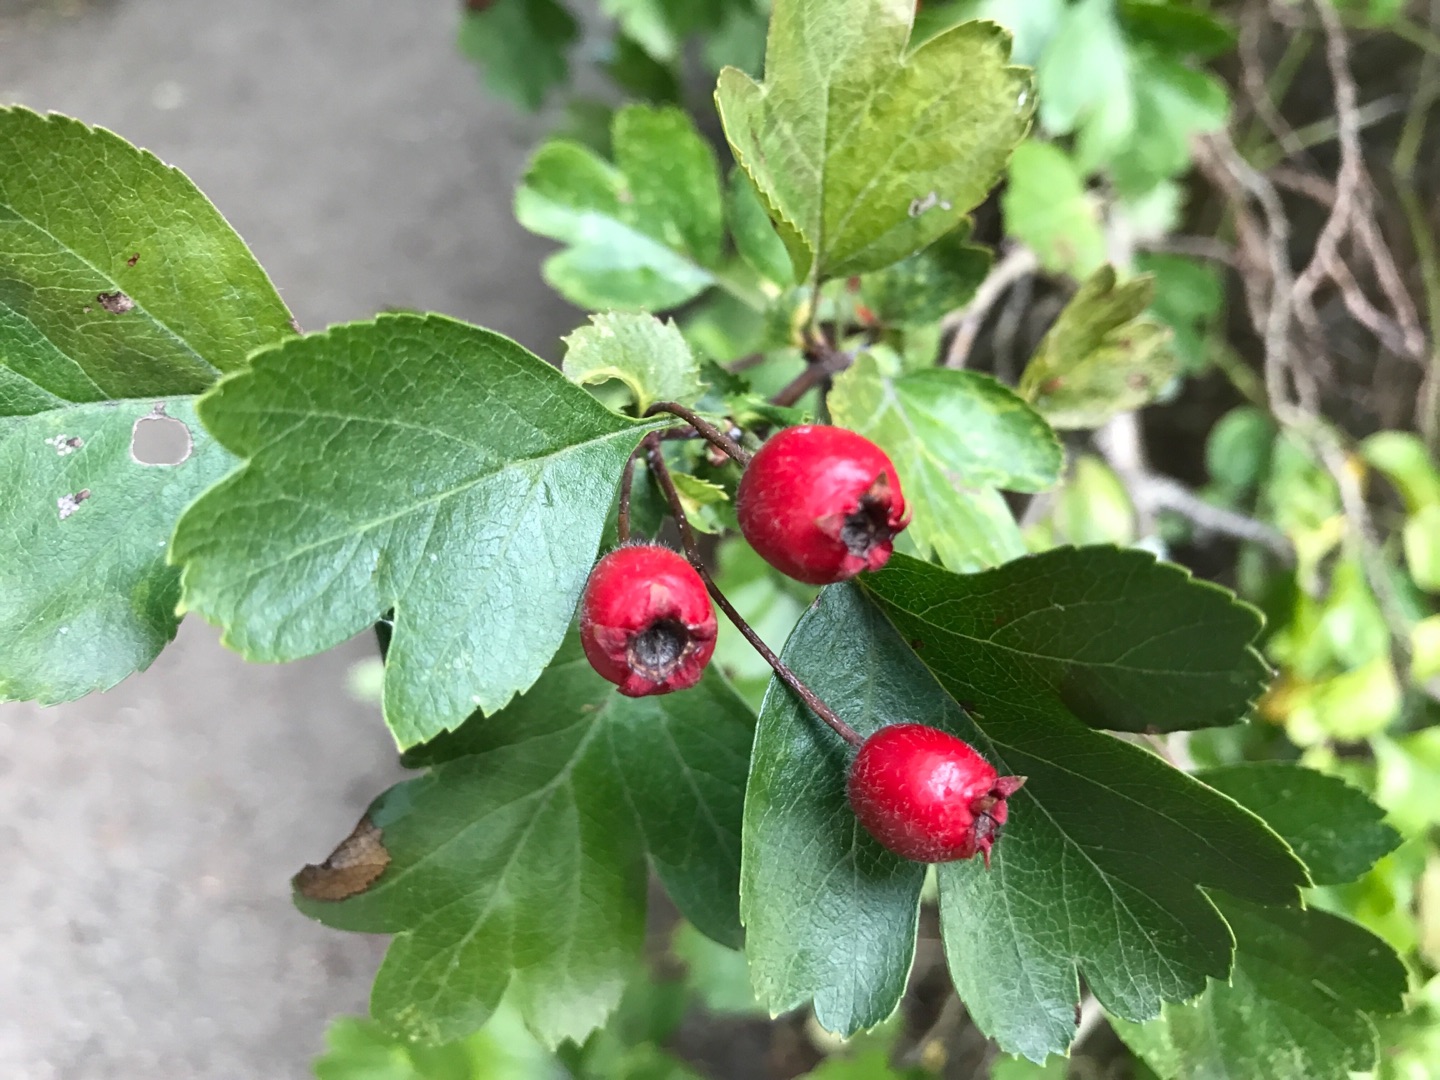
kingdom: Plantae
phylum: Tracheophyta
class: Magnoliopsida
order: Rosales
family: Rosaceae
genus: Crataegus
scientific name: Crataegus media
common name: Almindelig hvidtjørn × engriflet hvidtjørn
